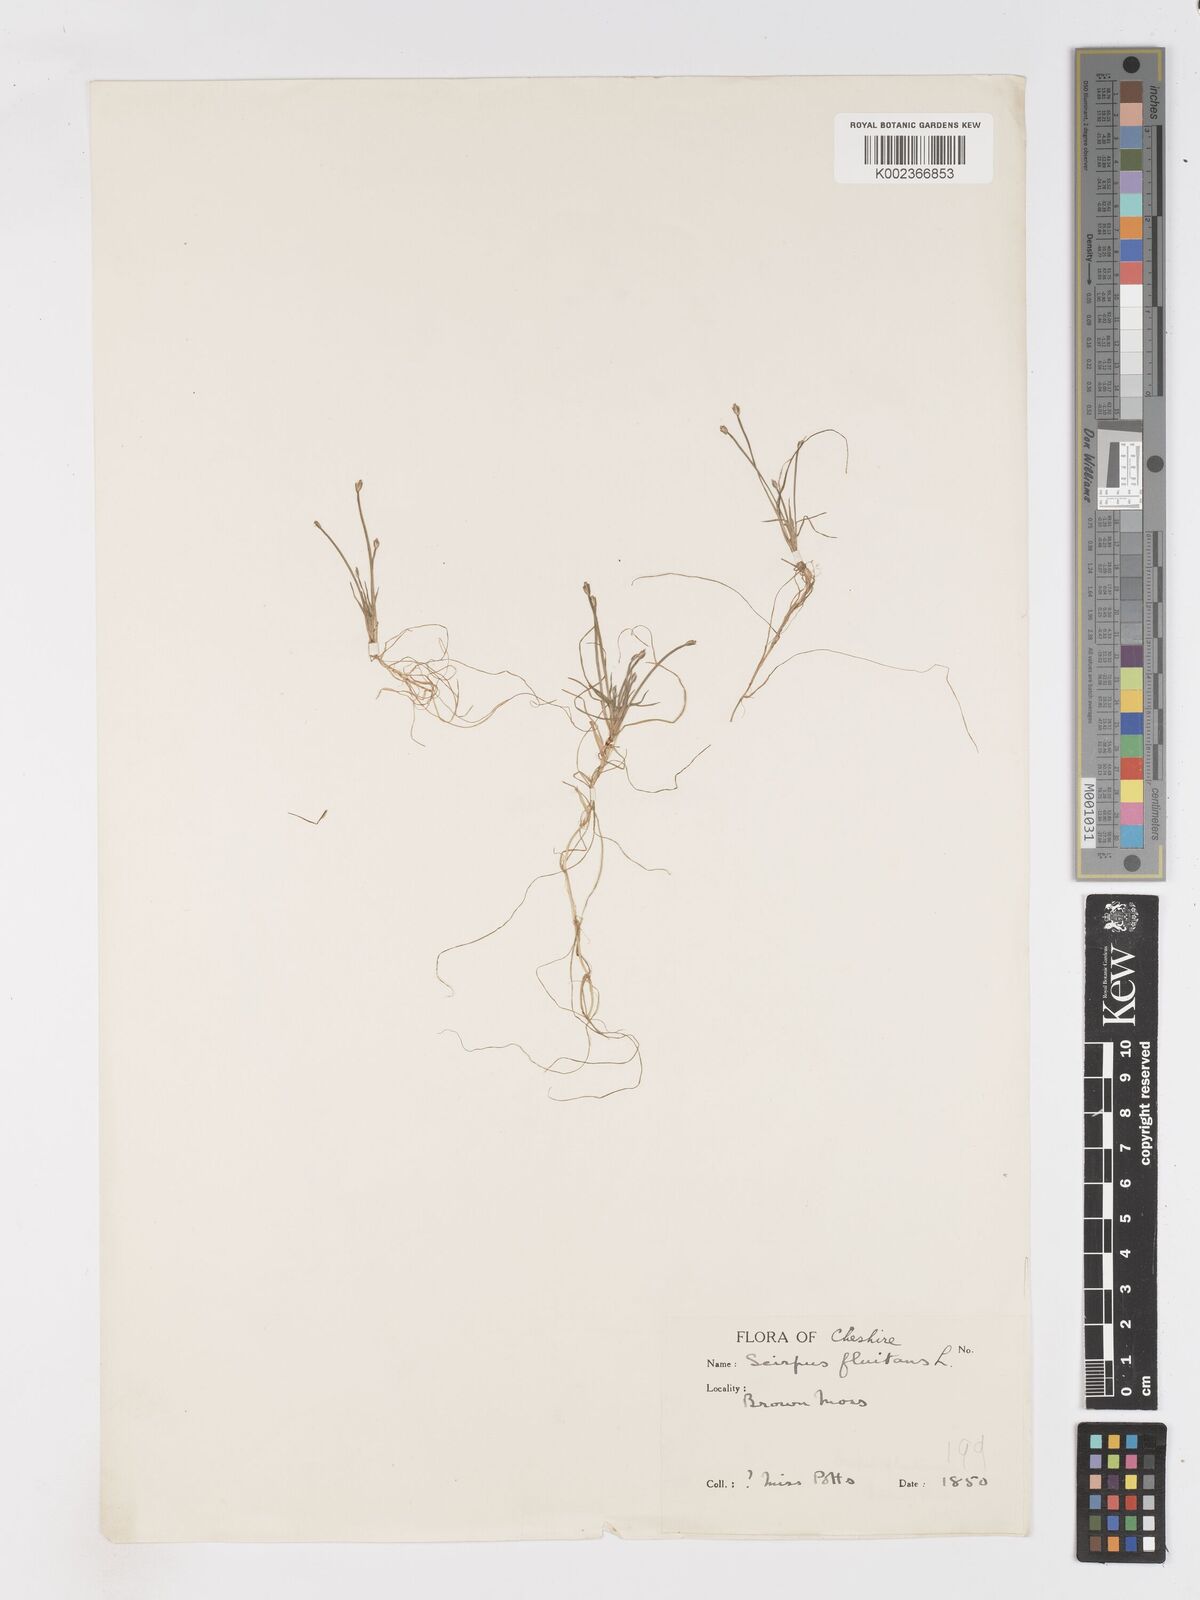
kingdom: Plantae
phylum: Tracheophyta
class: Liliopsida
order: Poales
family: Cyperaceae
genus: Isolepis
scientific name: Isolepis fluitans
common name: Floating club-rush
